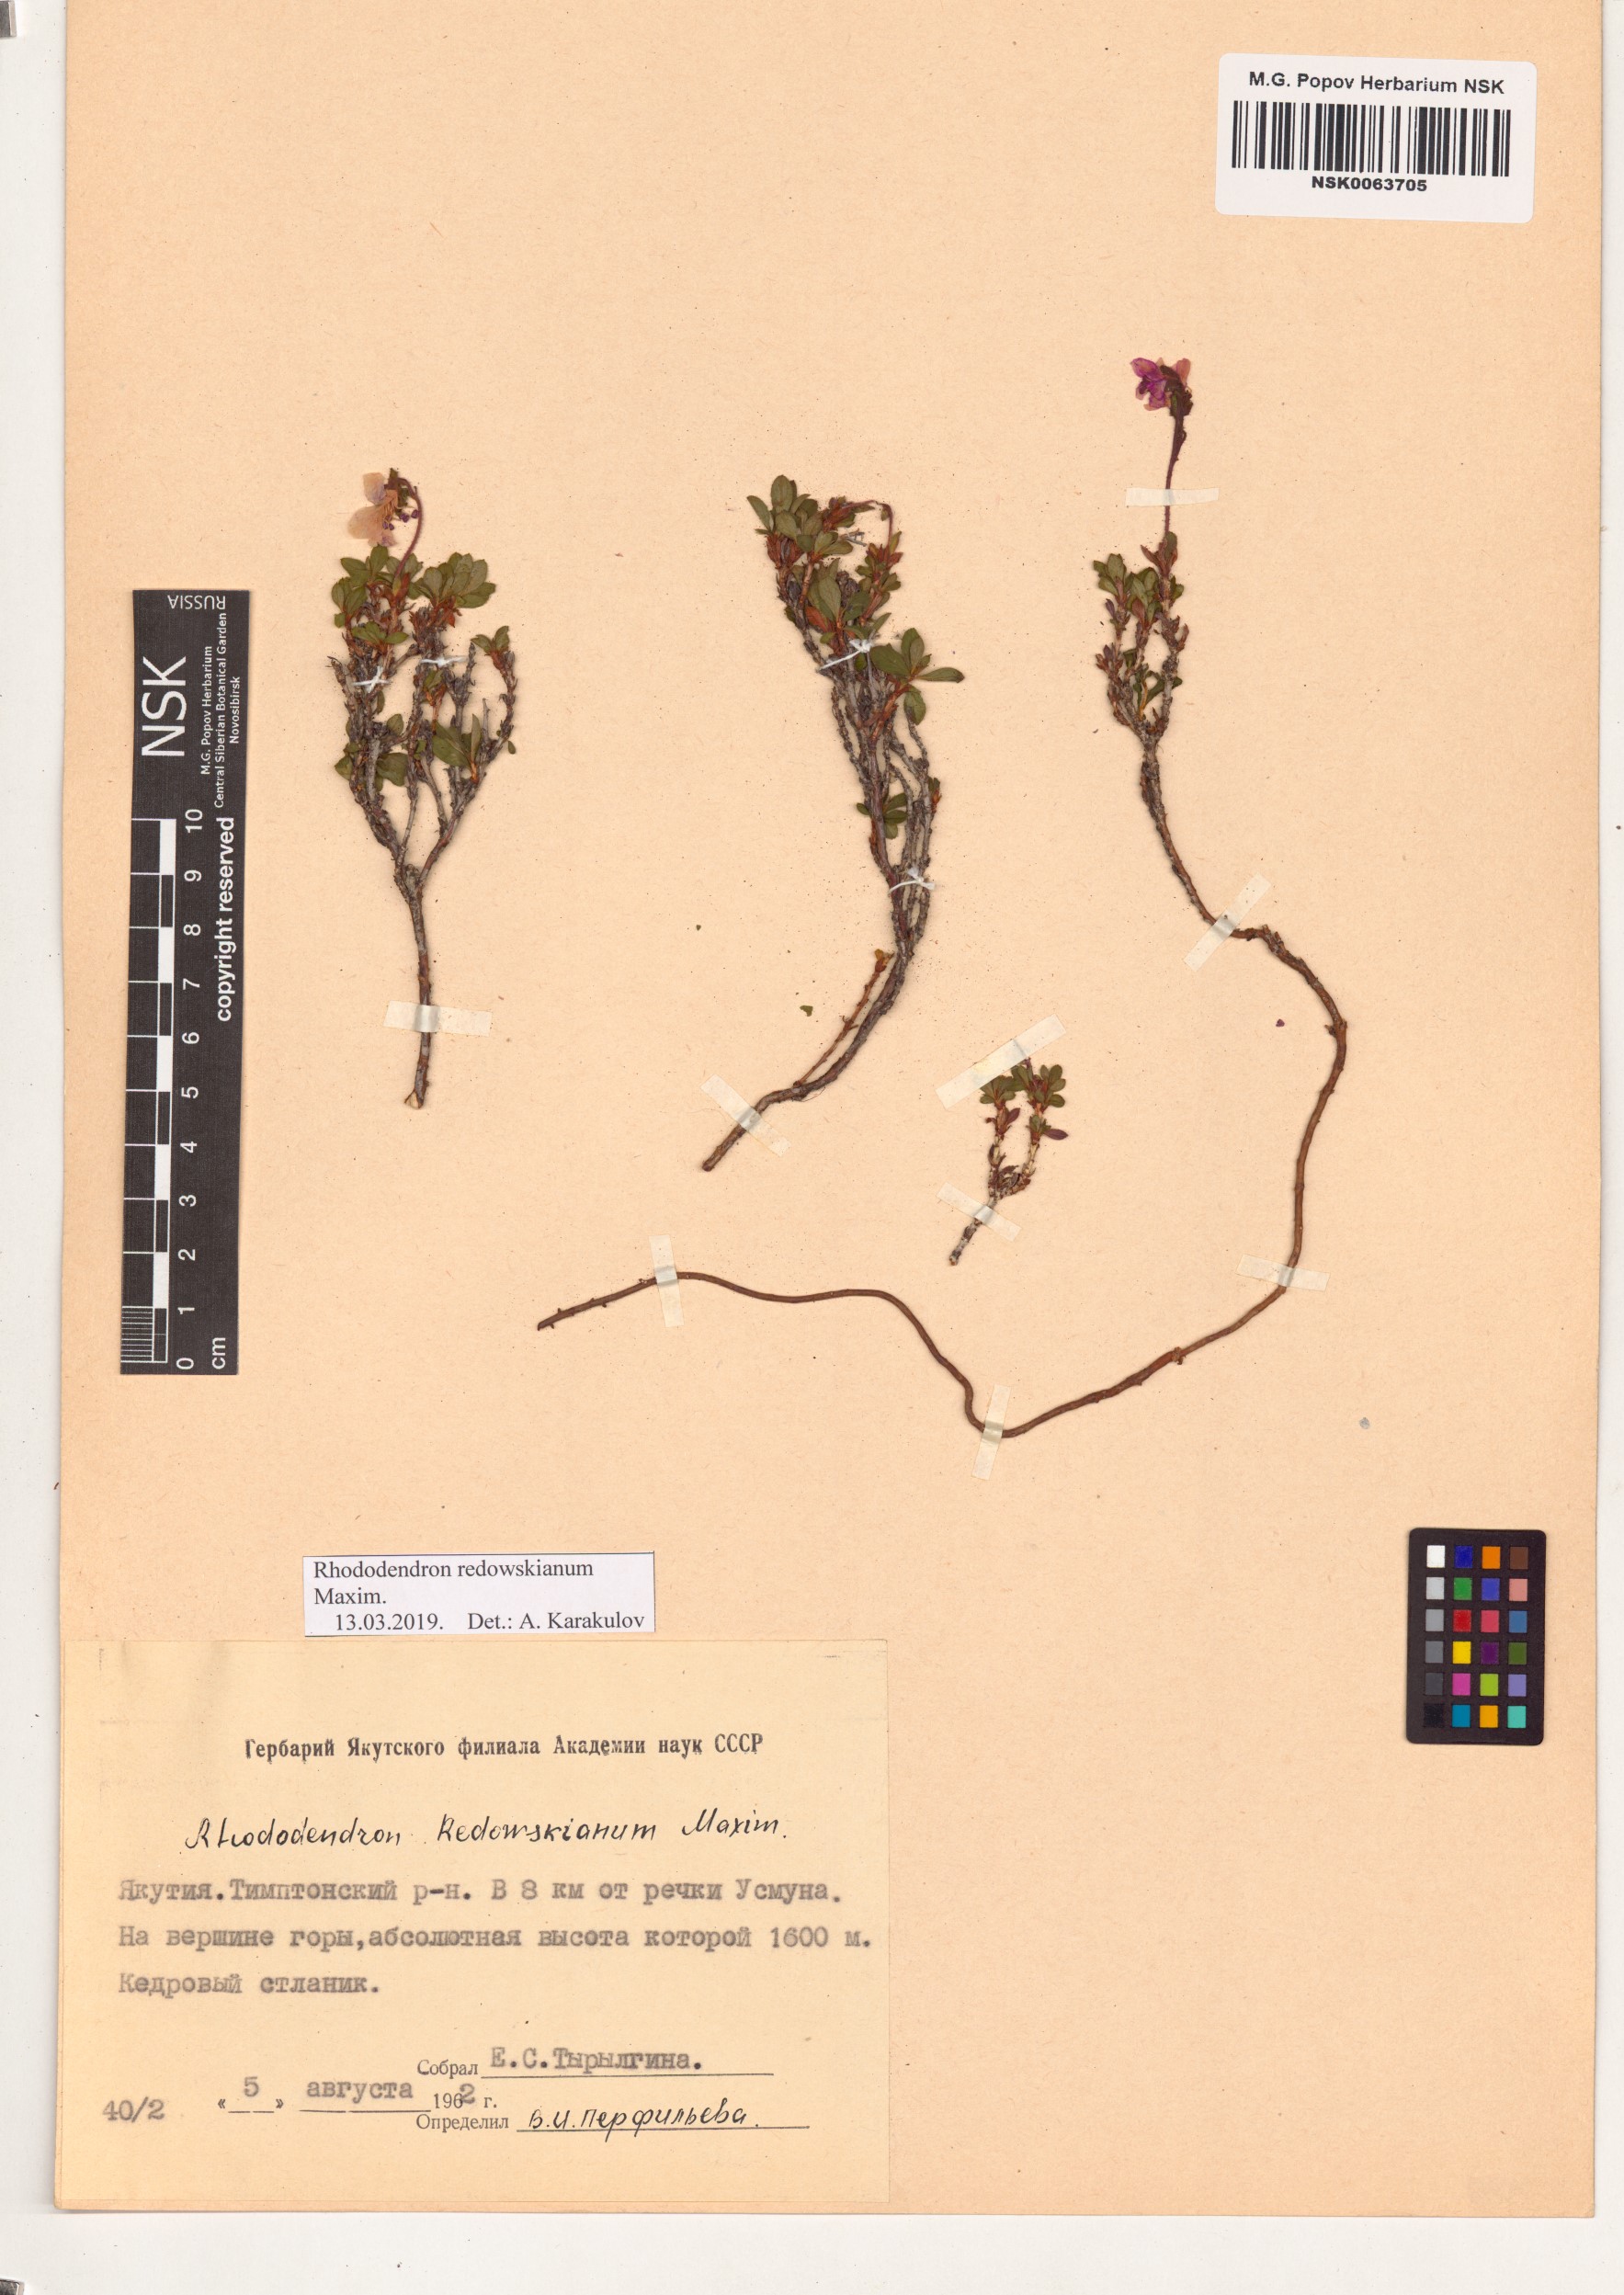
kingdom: Plantae
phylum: Tracheophyta
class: Magnoliopsida
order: Ericales
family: Ericaceae
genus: Rhododendron
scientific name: Rhododendron redowskianum
